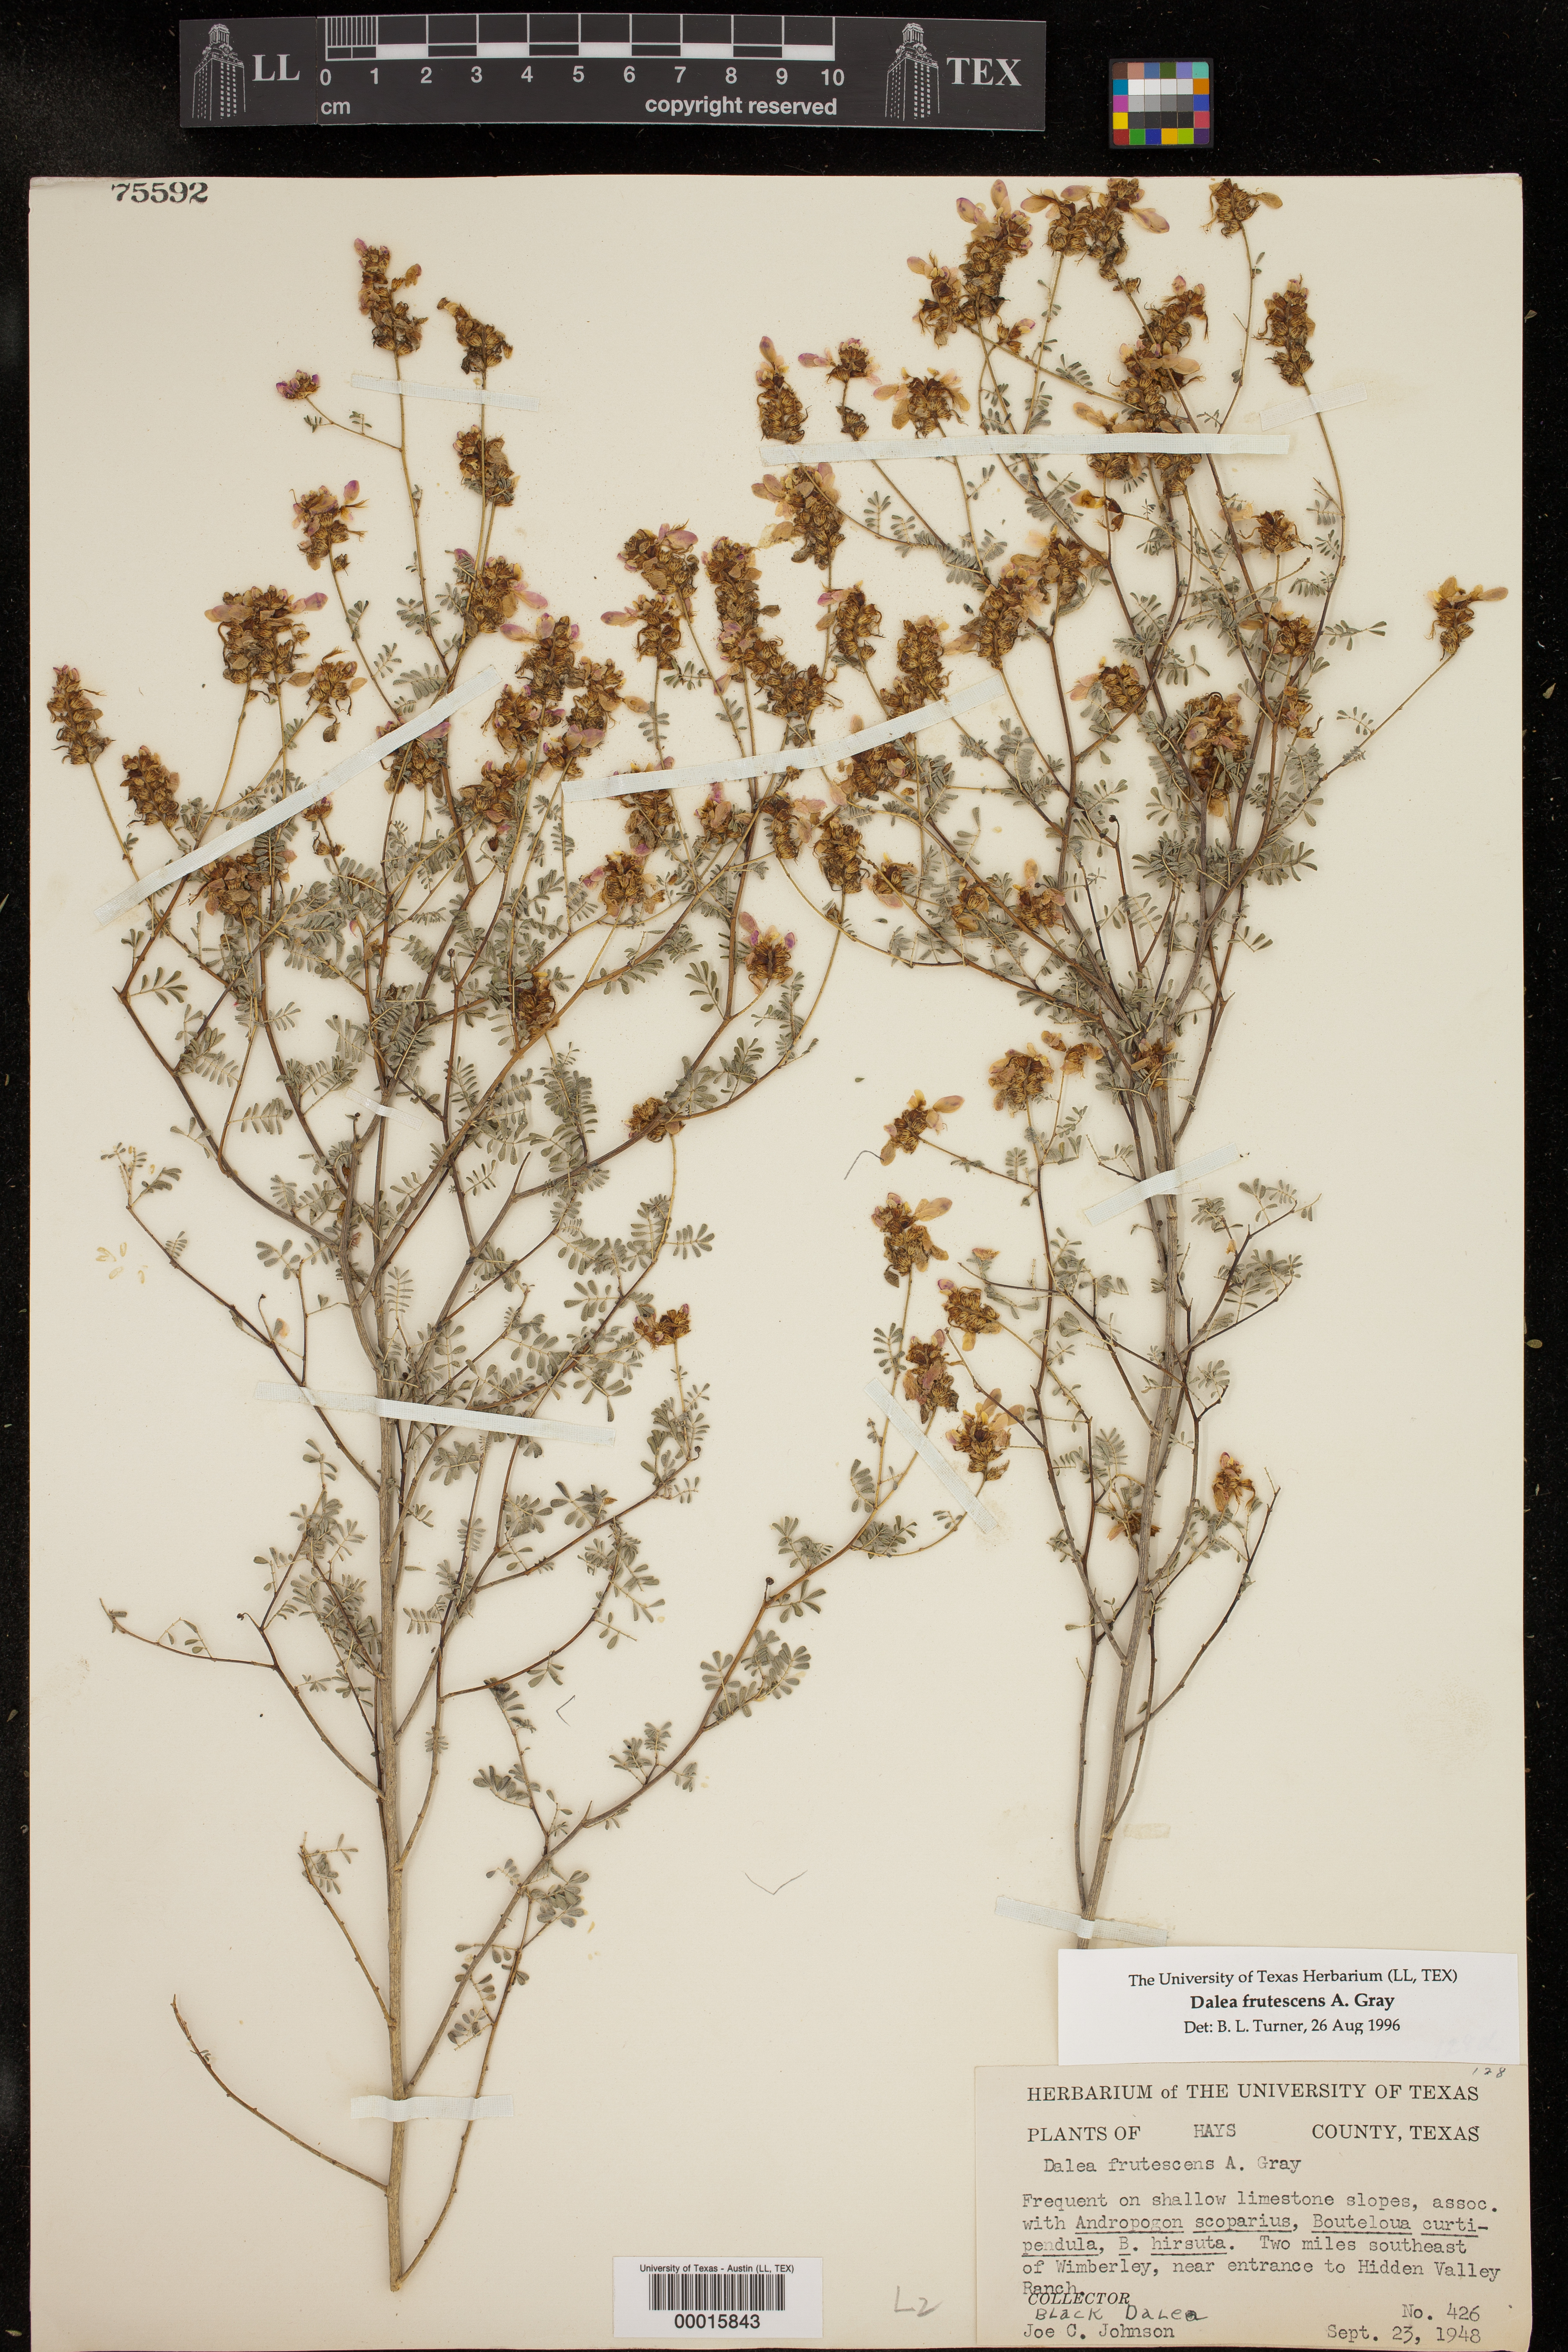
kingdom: Plantae
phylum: Tracheophyta
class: Magnoliopsida
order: Fabales
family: Fabaceae
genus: Dalea
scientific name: Dalea frutescens
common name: Black dalea
